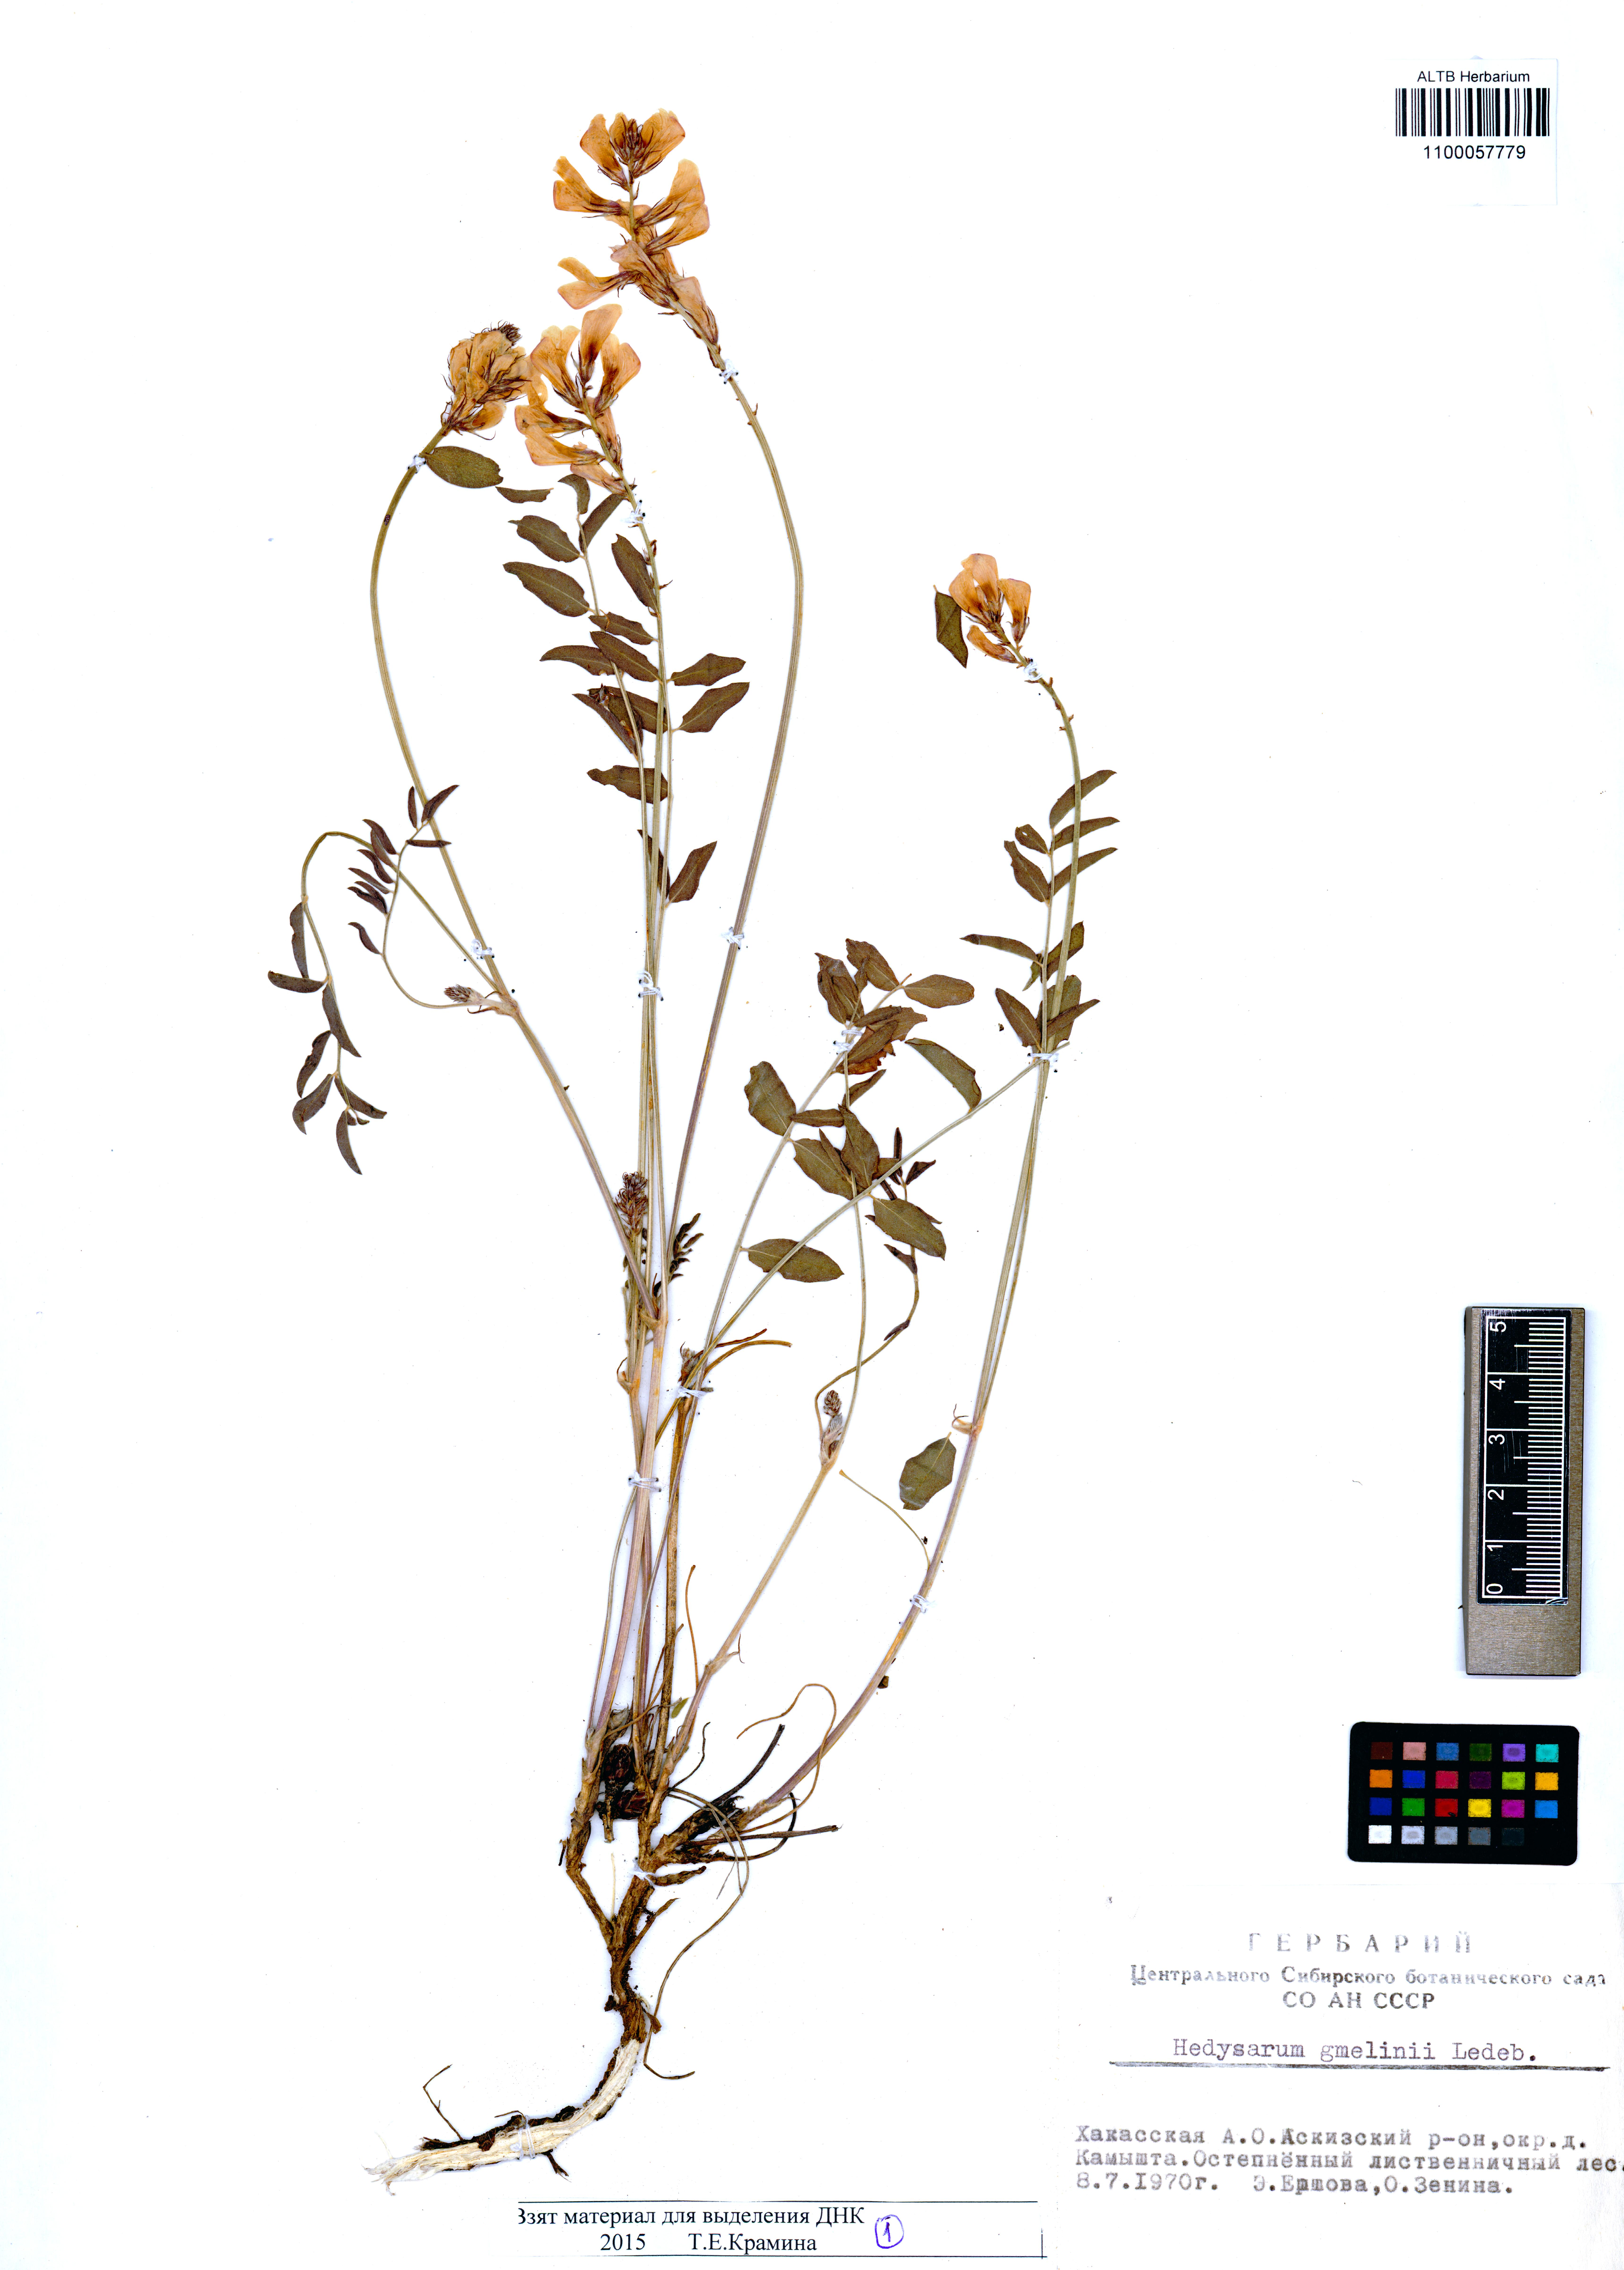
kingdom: Plantae
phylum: Tracheophyta
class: Magnoliopsida
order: Fabales
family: Fabaceae
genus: Hedysarum
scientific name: Hedysarum gmelinii
